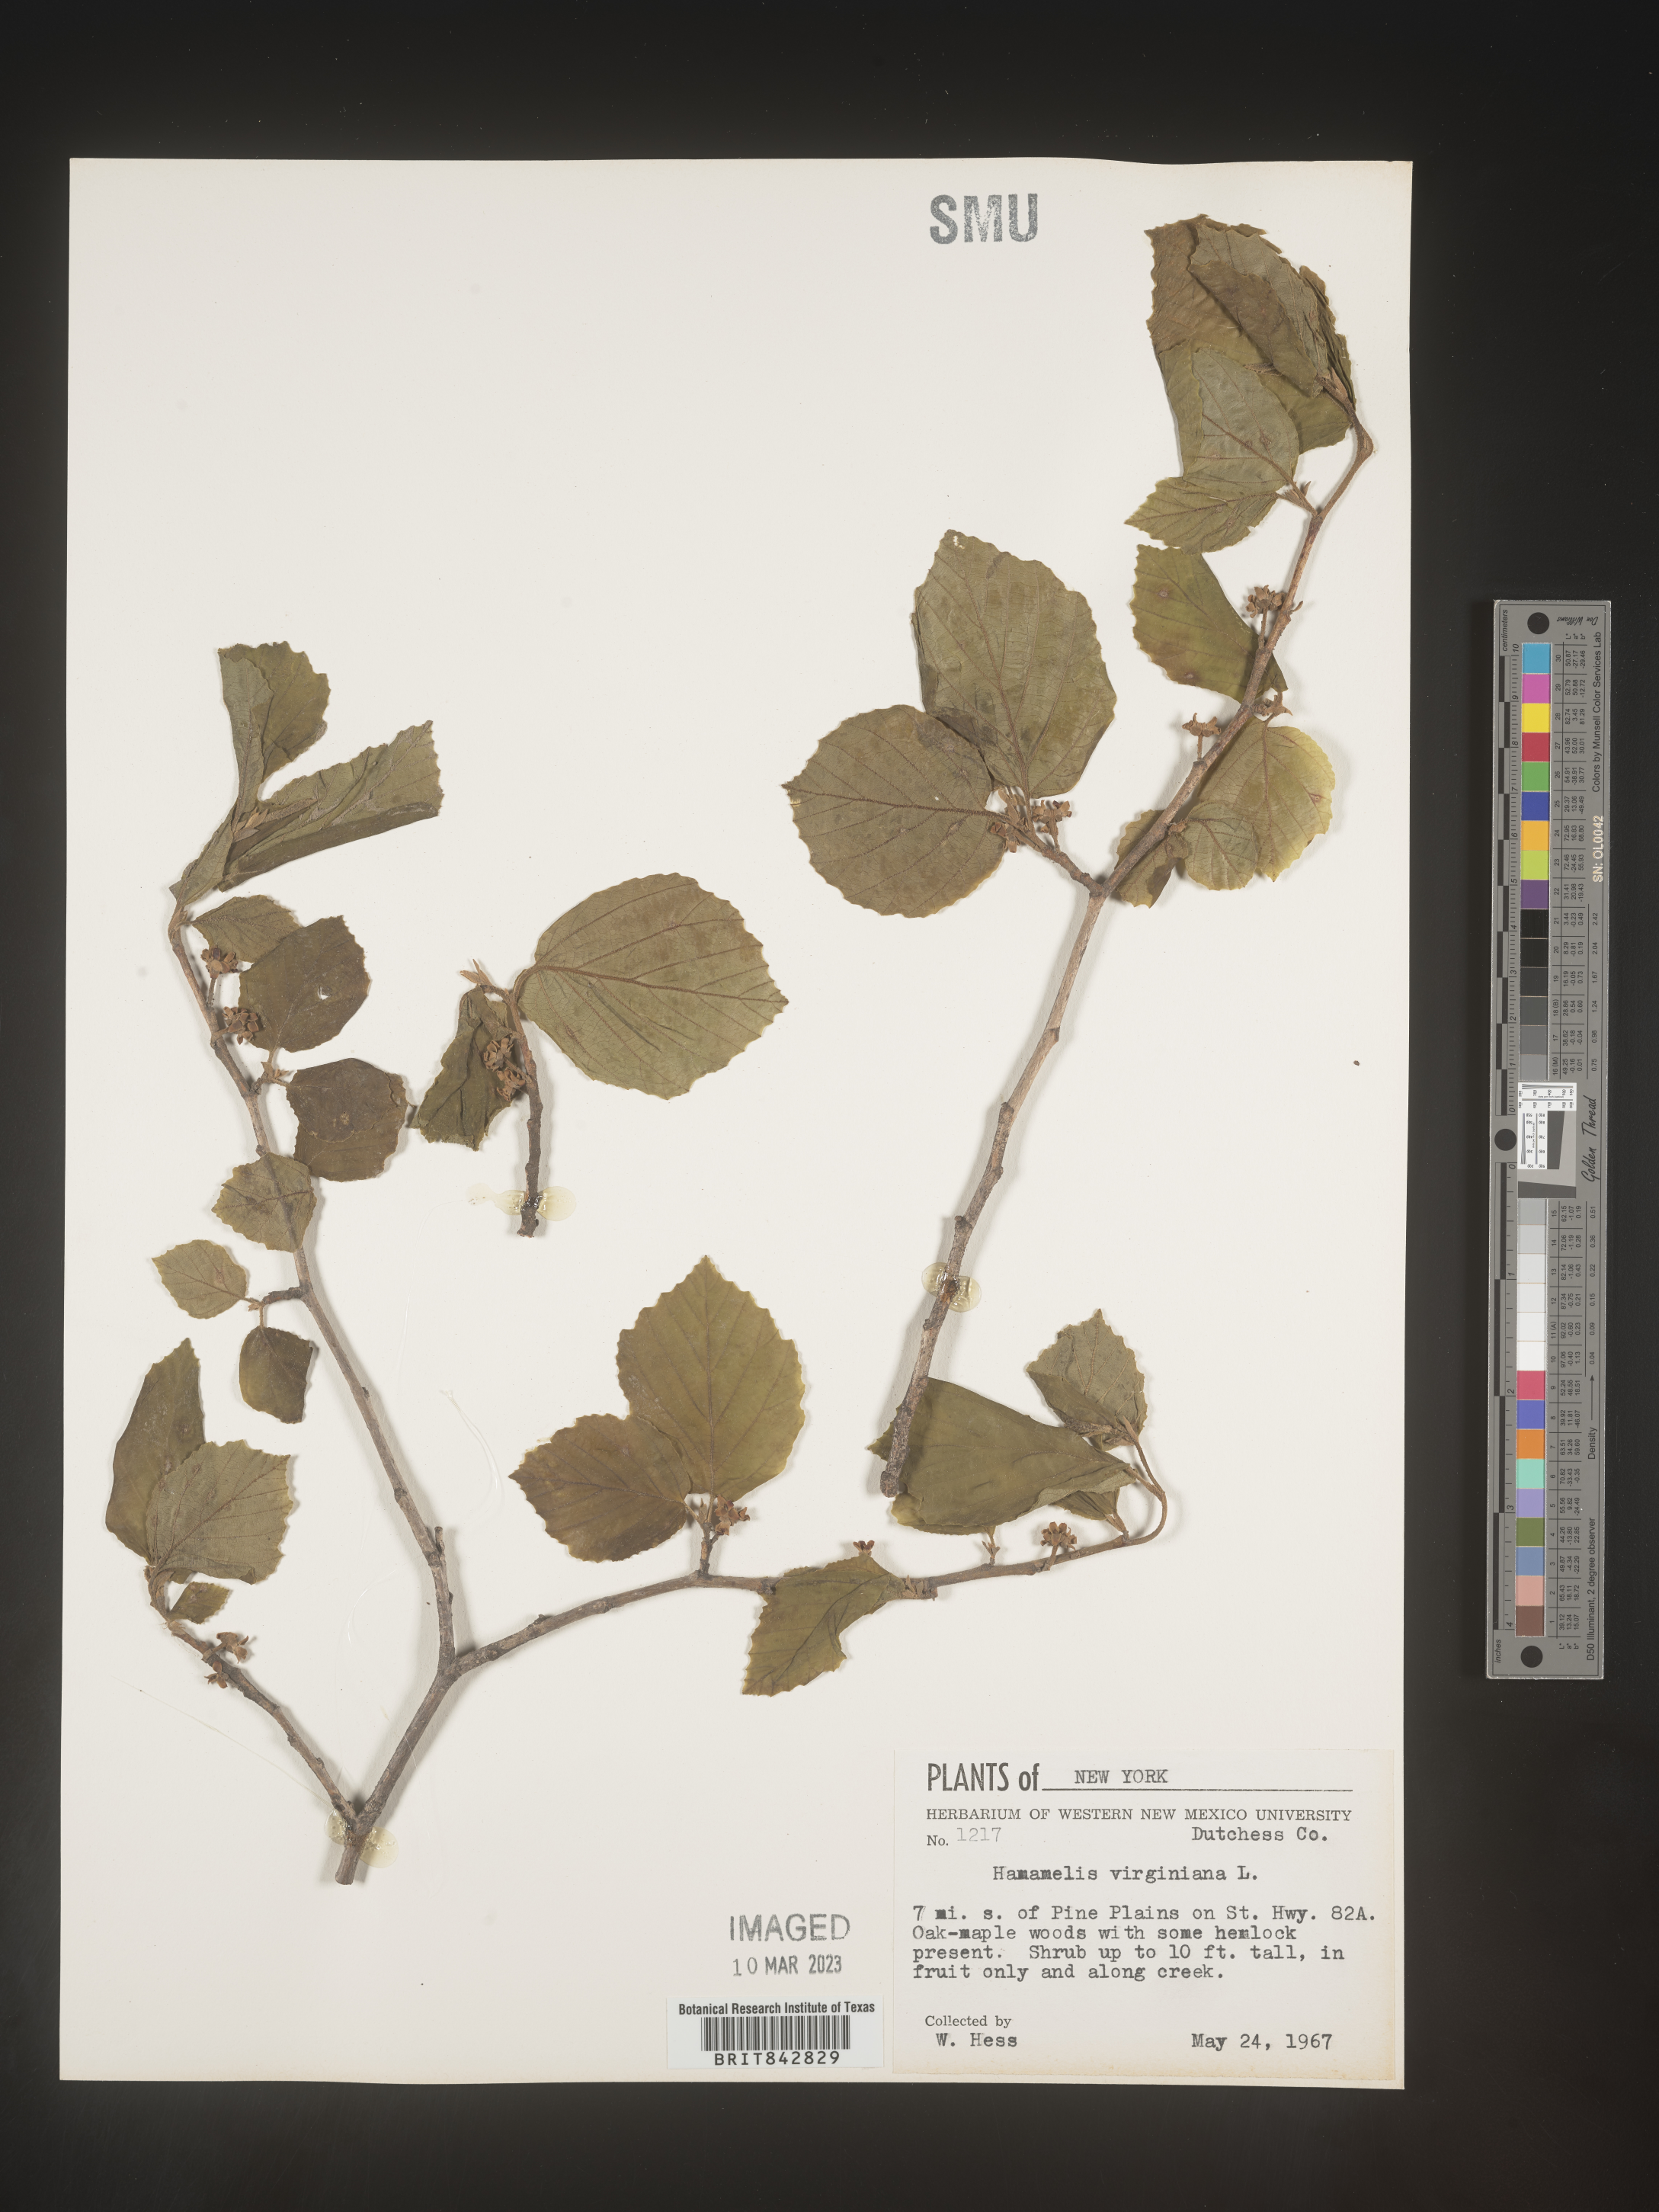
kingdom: Plantae
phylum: Tracheophyta
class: Magnoliopsida
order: Saxifragales
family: Hamamelidaceae
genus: Hamamelis
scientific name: Hamamelis virginiana
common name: Witch-hazel
